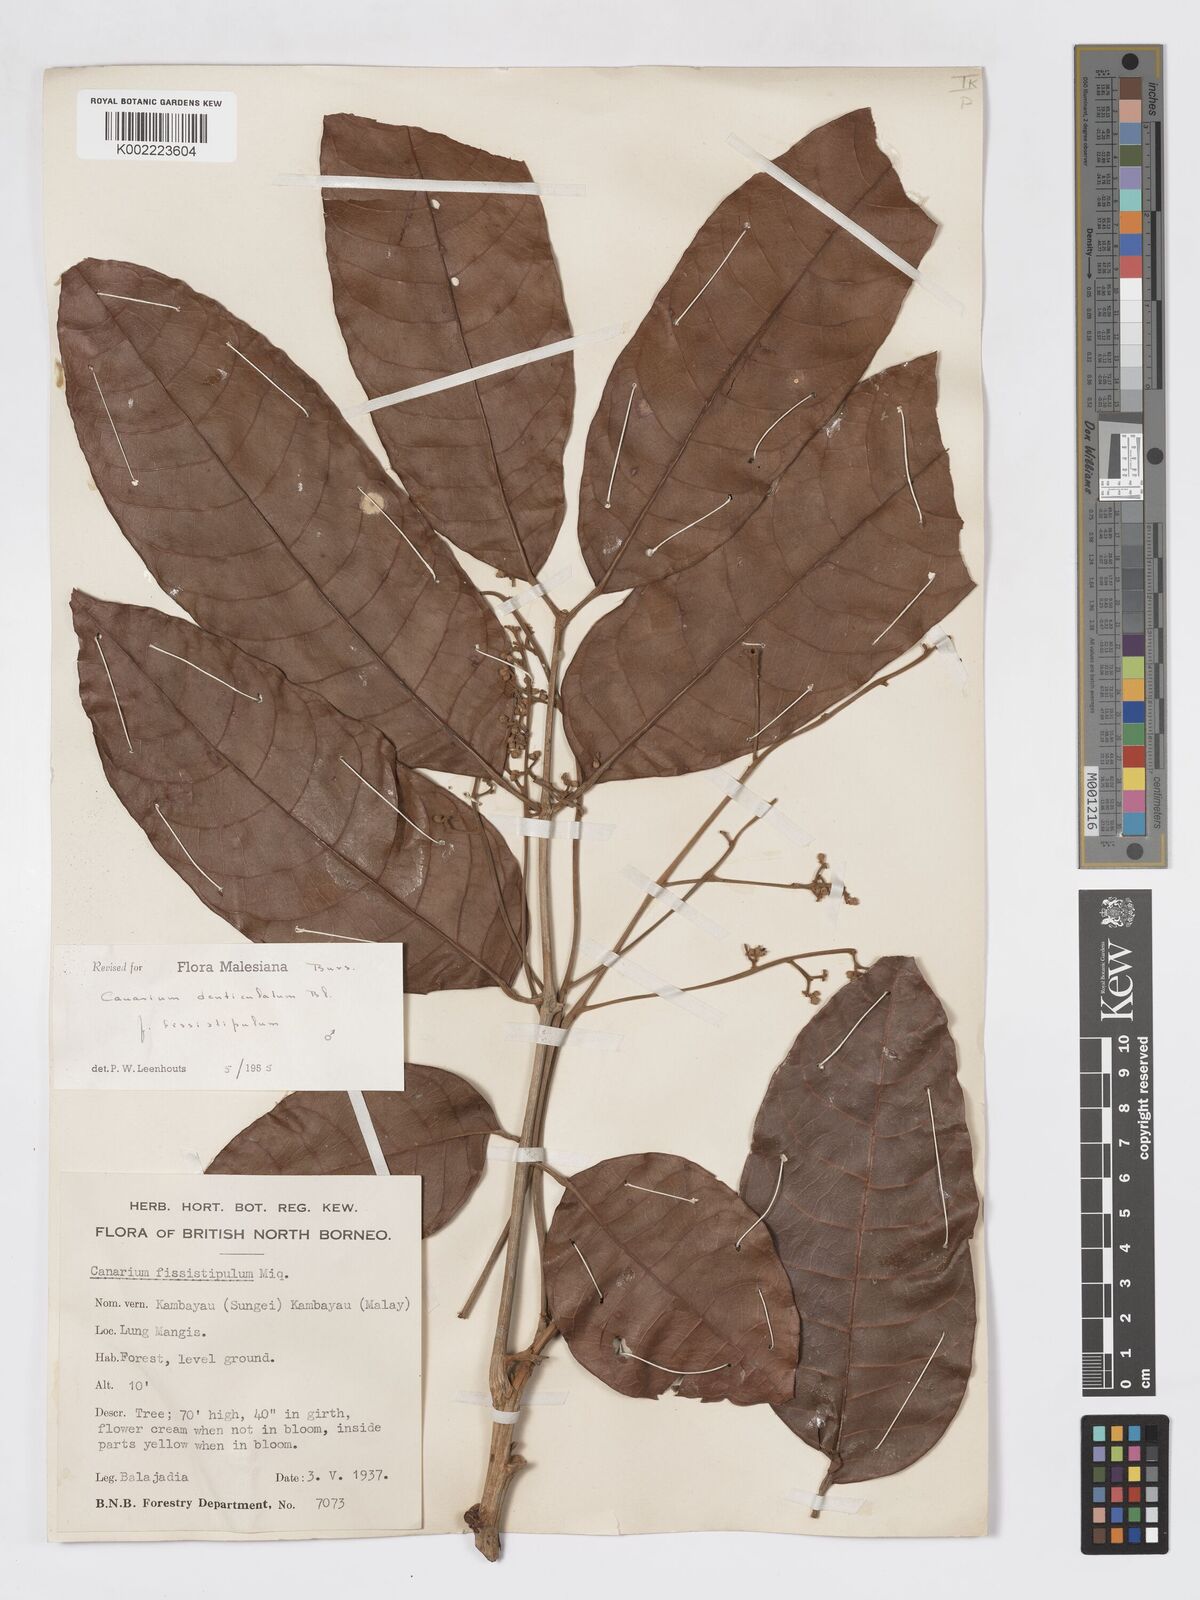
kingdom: Plantae
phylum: Tracheophyta
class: Magnoliopsida
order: Sapindales
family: Burseraceae
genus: Canarium
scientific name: Canarium denticulatum
